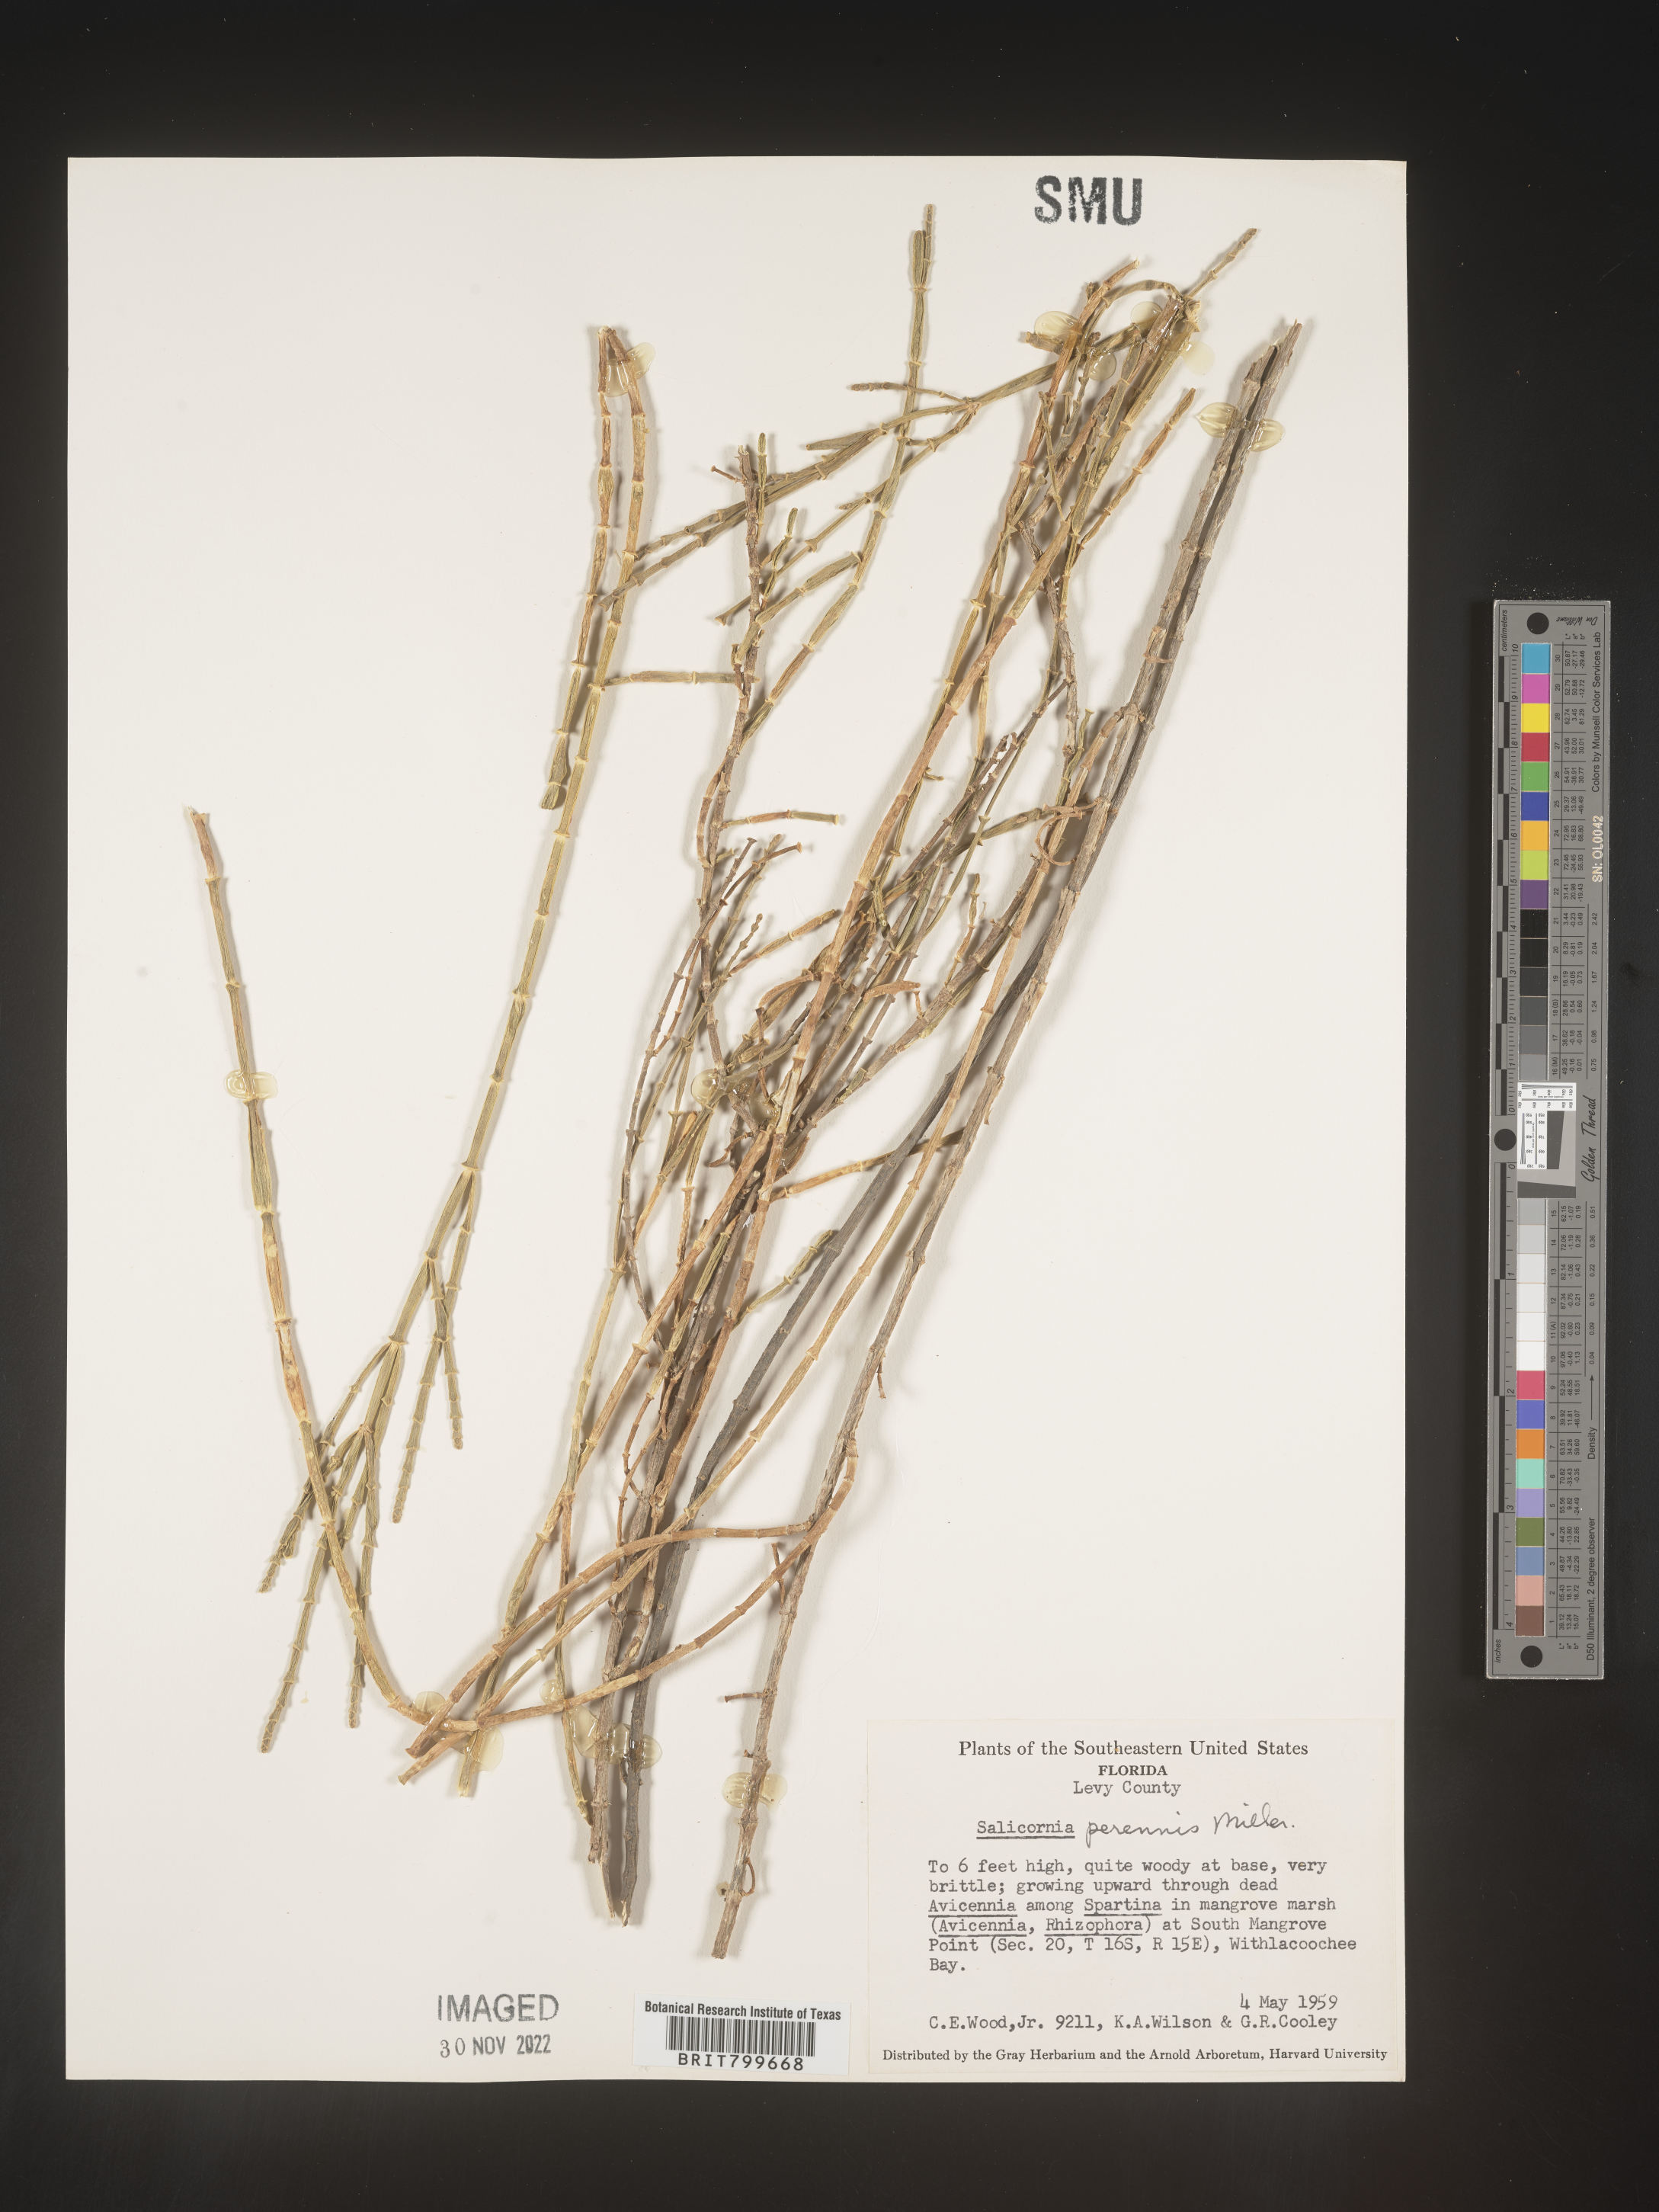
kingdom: Plantae
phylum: Tracheophyta
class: Magnoliopsida
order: Caryophyllales
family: Amaranthaceae
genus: Salicornia
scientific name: Salicornia
